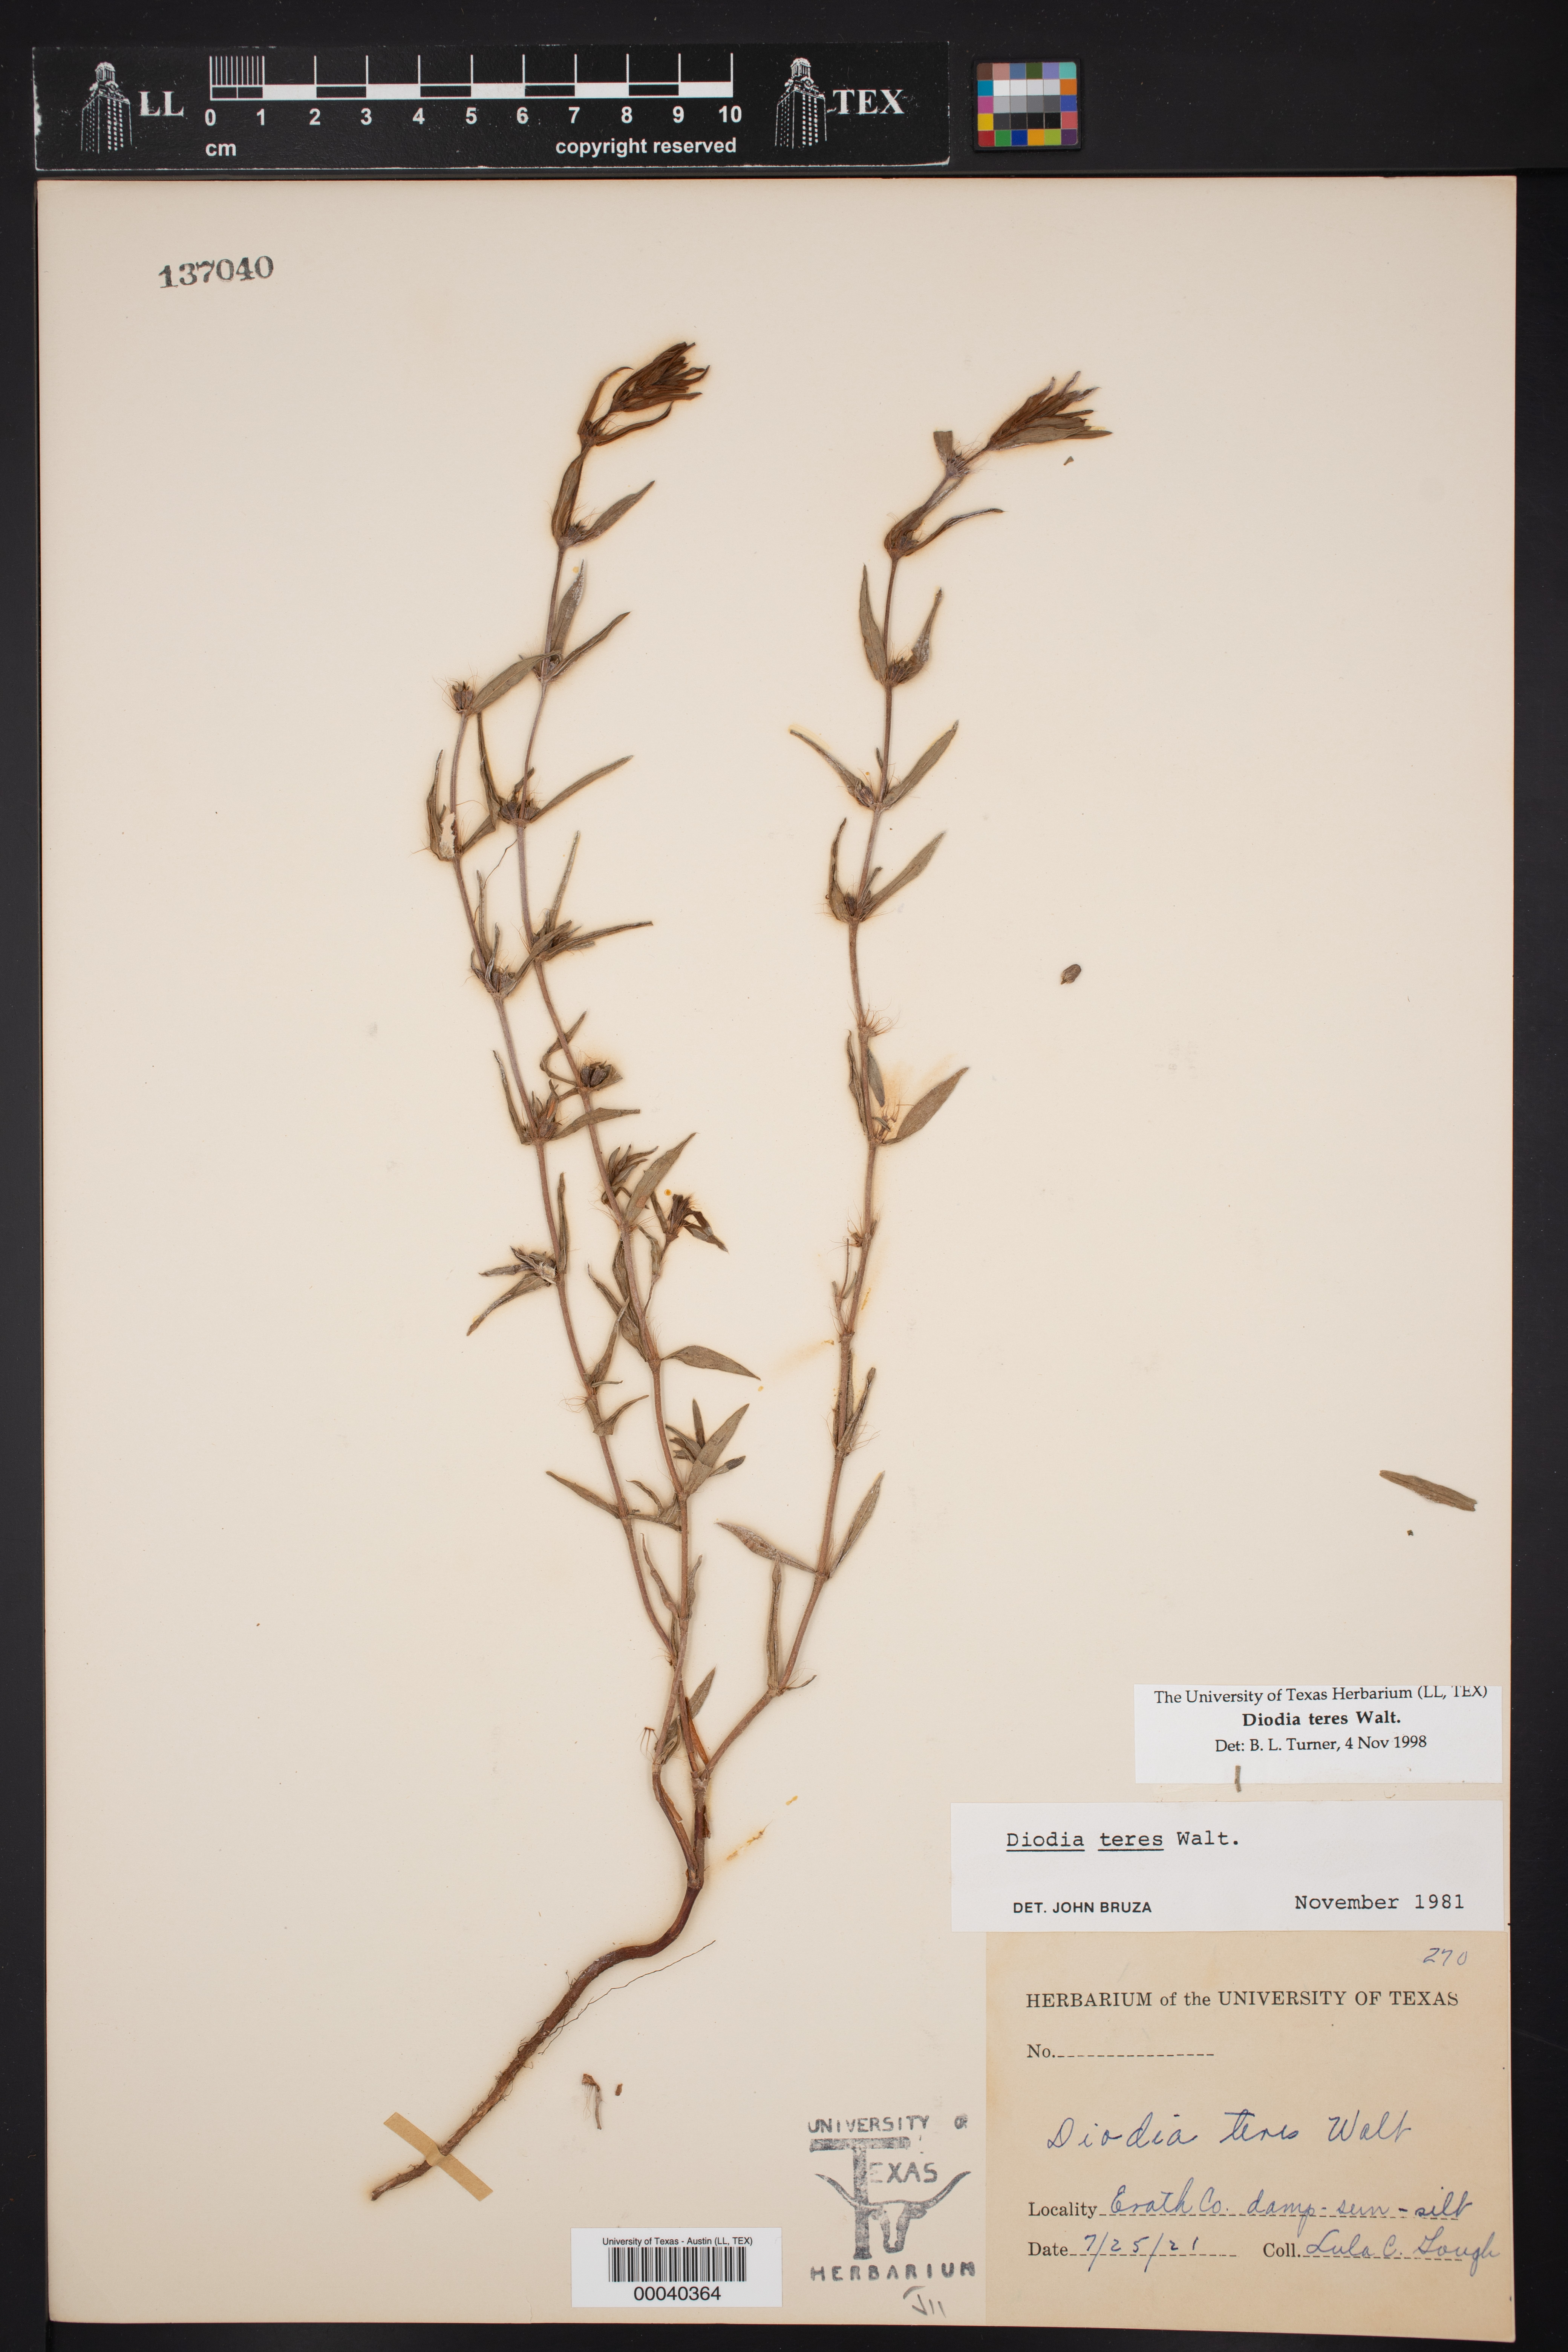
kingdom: Plantae
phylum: Tracheophyta
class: Magnoliopsida
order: Gentianales
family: Rubiaceae
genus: Hexasepalum
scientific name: Hexasepalum teres
